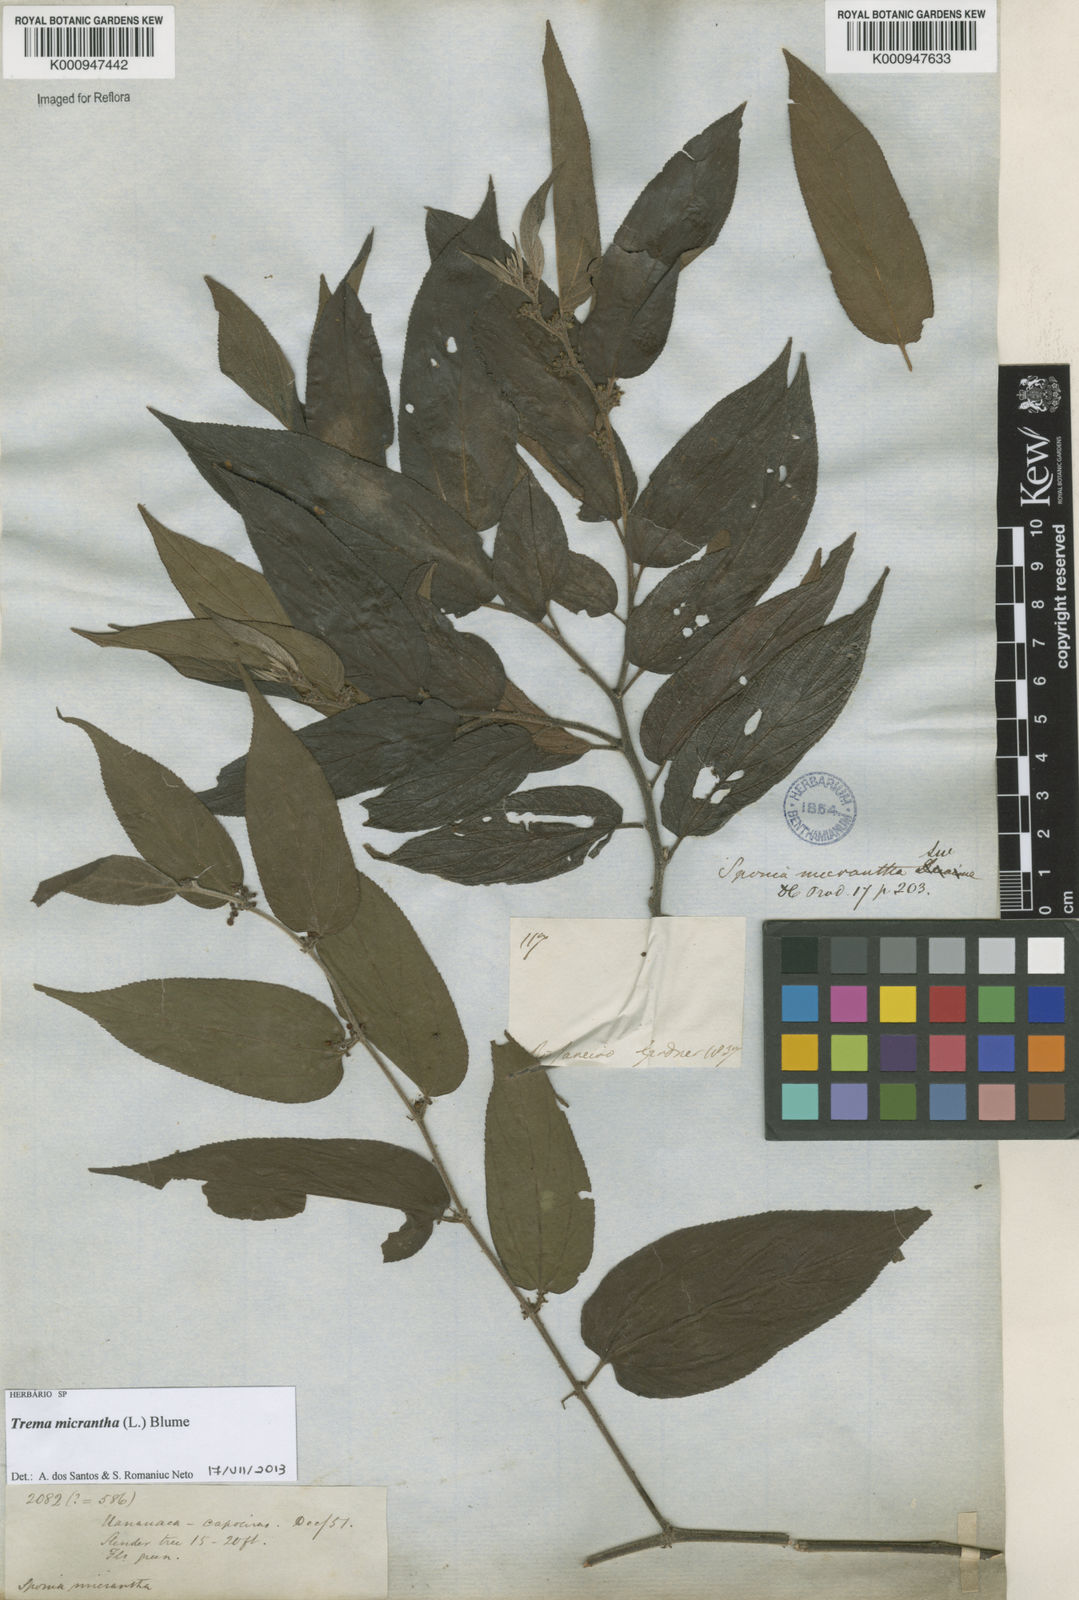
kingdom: Plantae
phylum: Tracheophyta
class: Magnoliopsida
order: Rosales
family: Cannabaceae
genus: Trema
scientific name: Trema micranthum
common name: Jamaican nettletree
